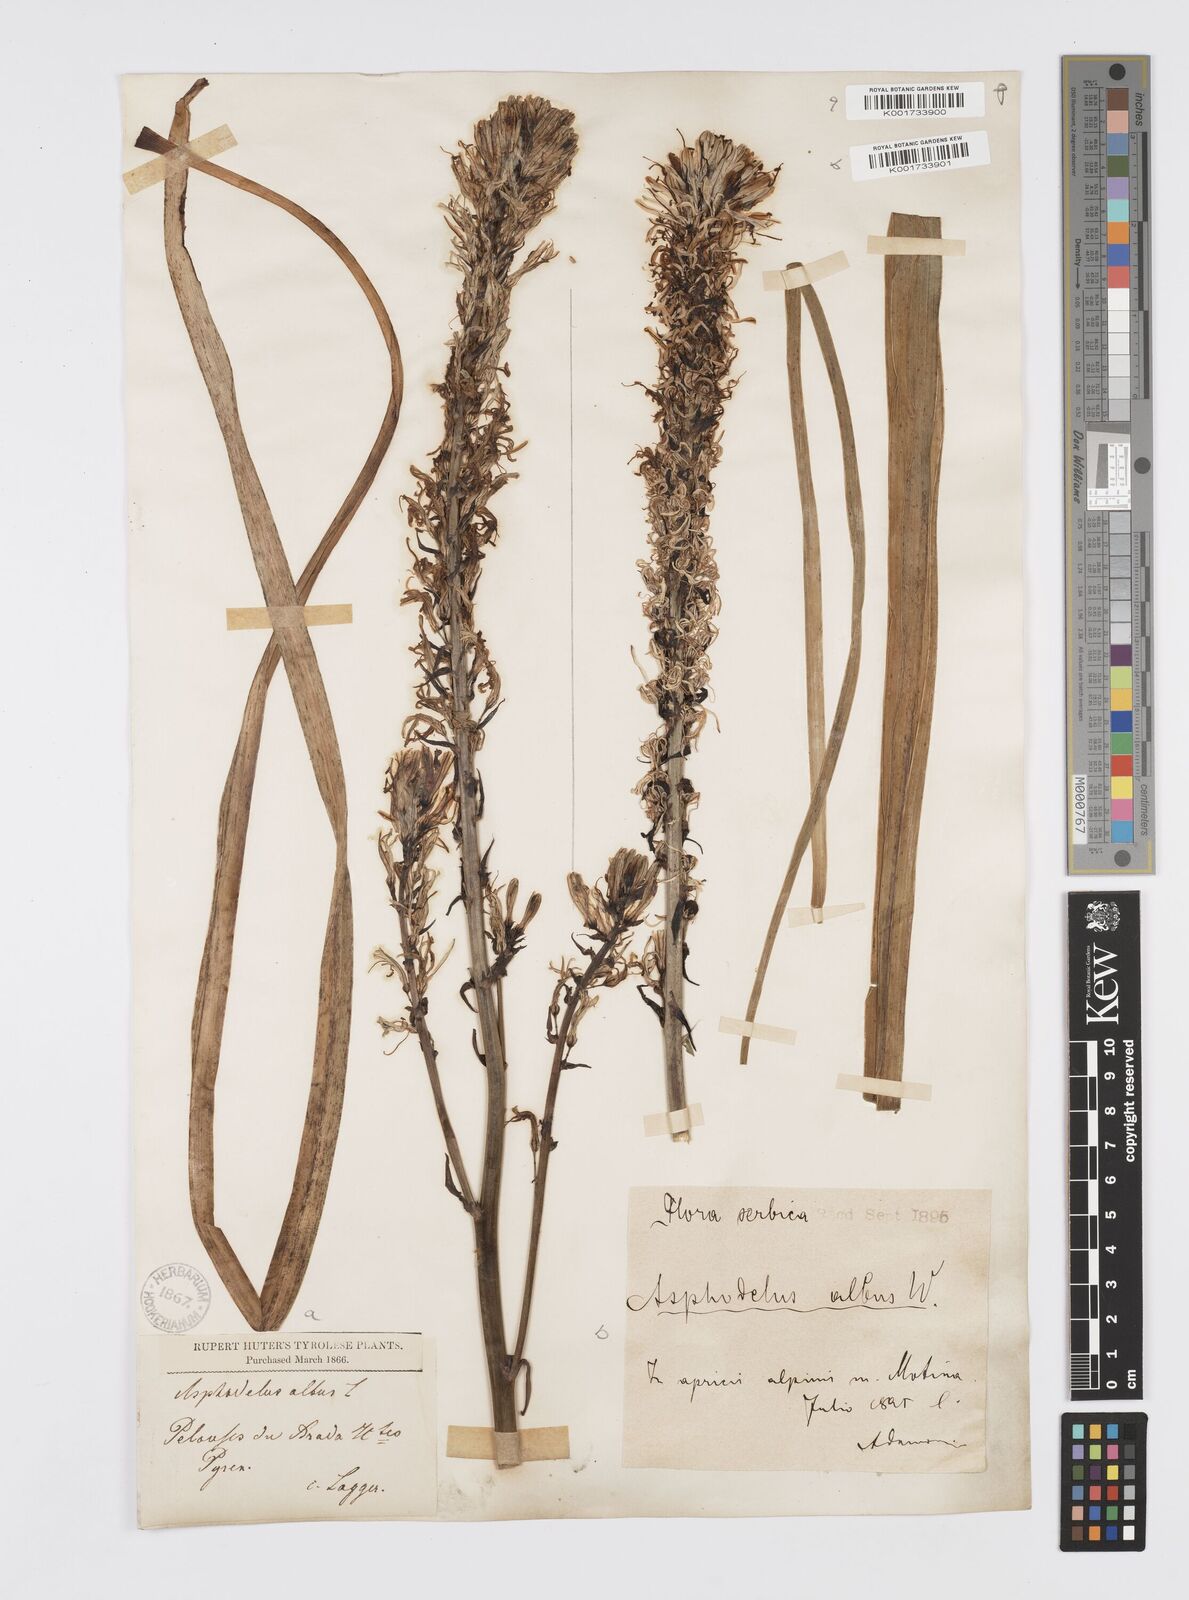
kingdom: Plantae
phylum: Tracheophyta
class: Liliopsida
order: Asparagales
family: Asphodelaceae
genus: Asphodelus
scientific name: Asphodelus albus
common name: White asphodel
